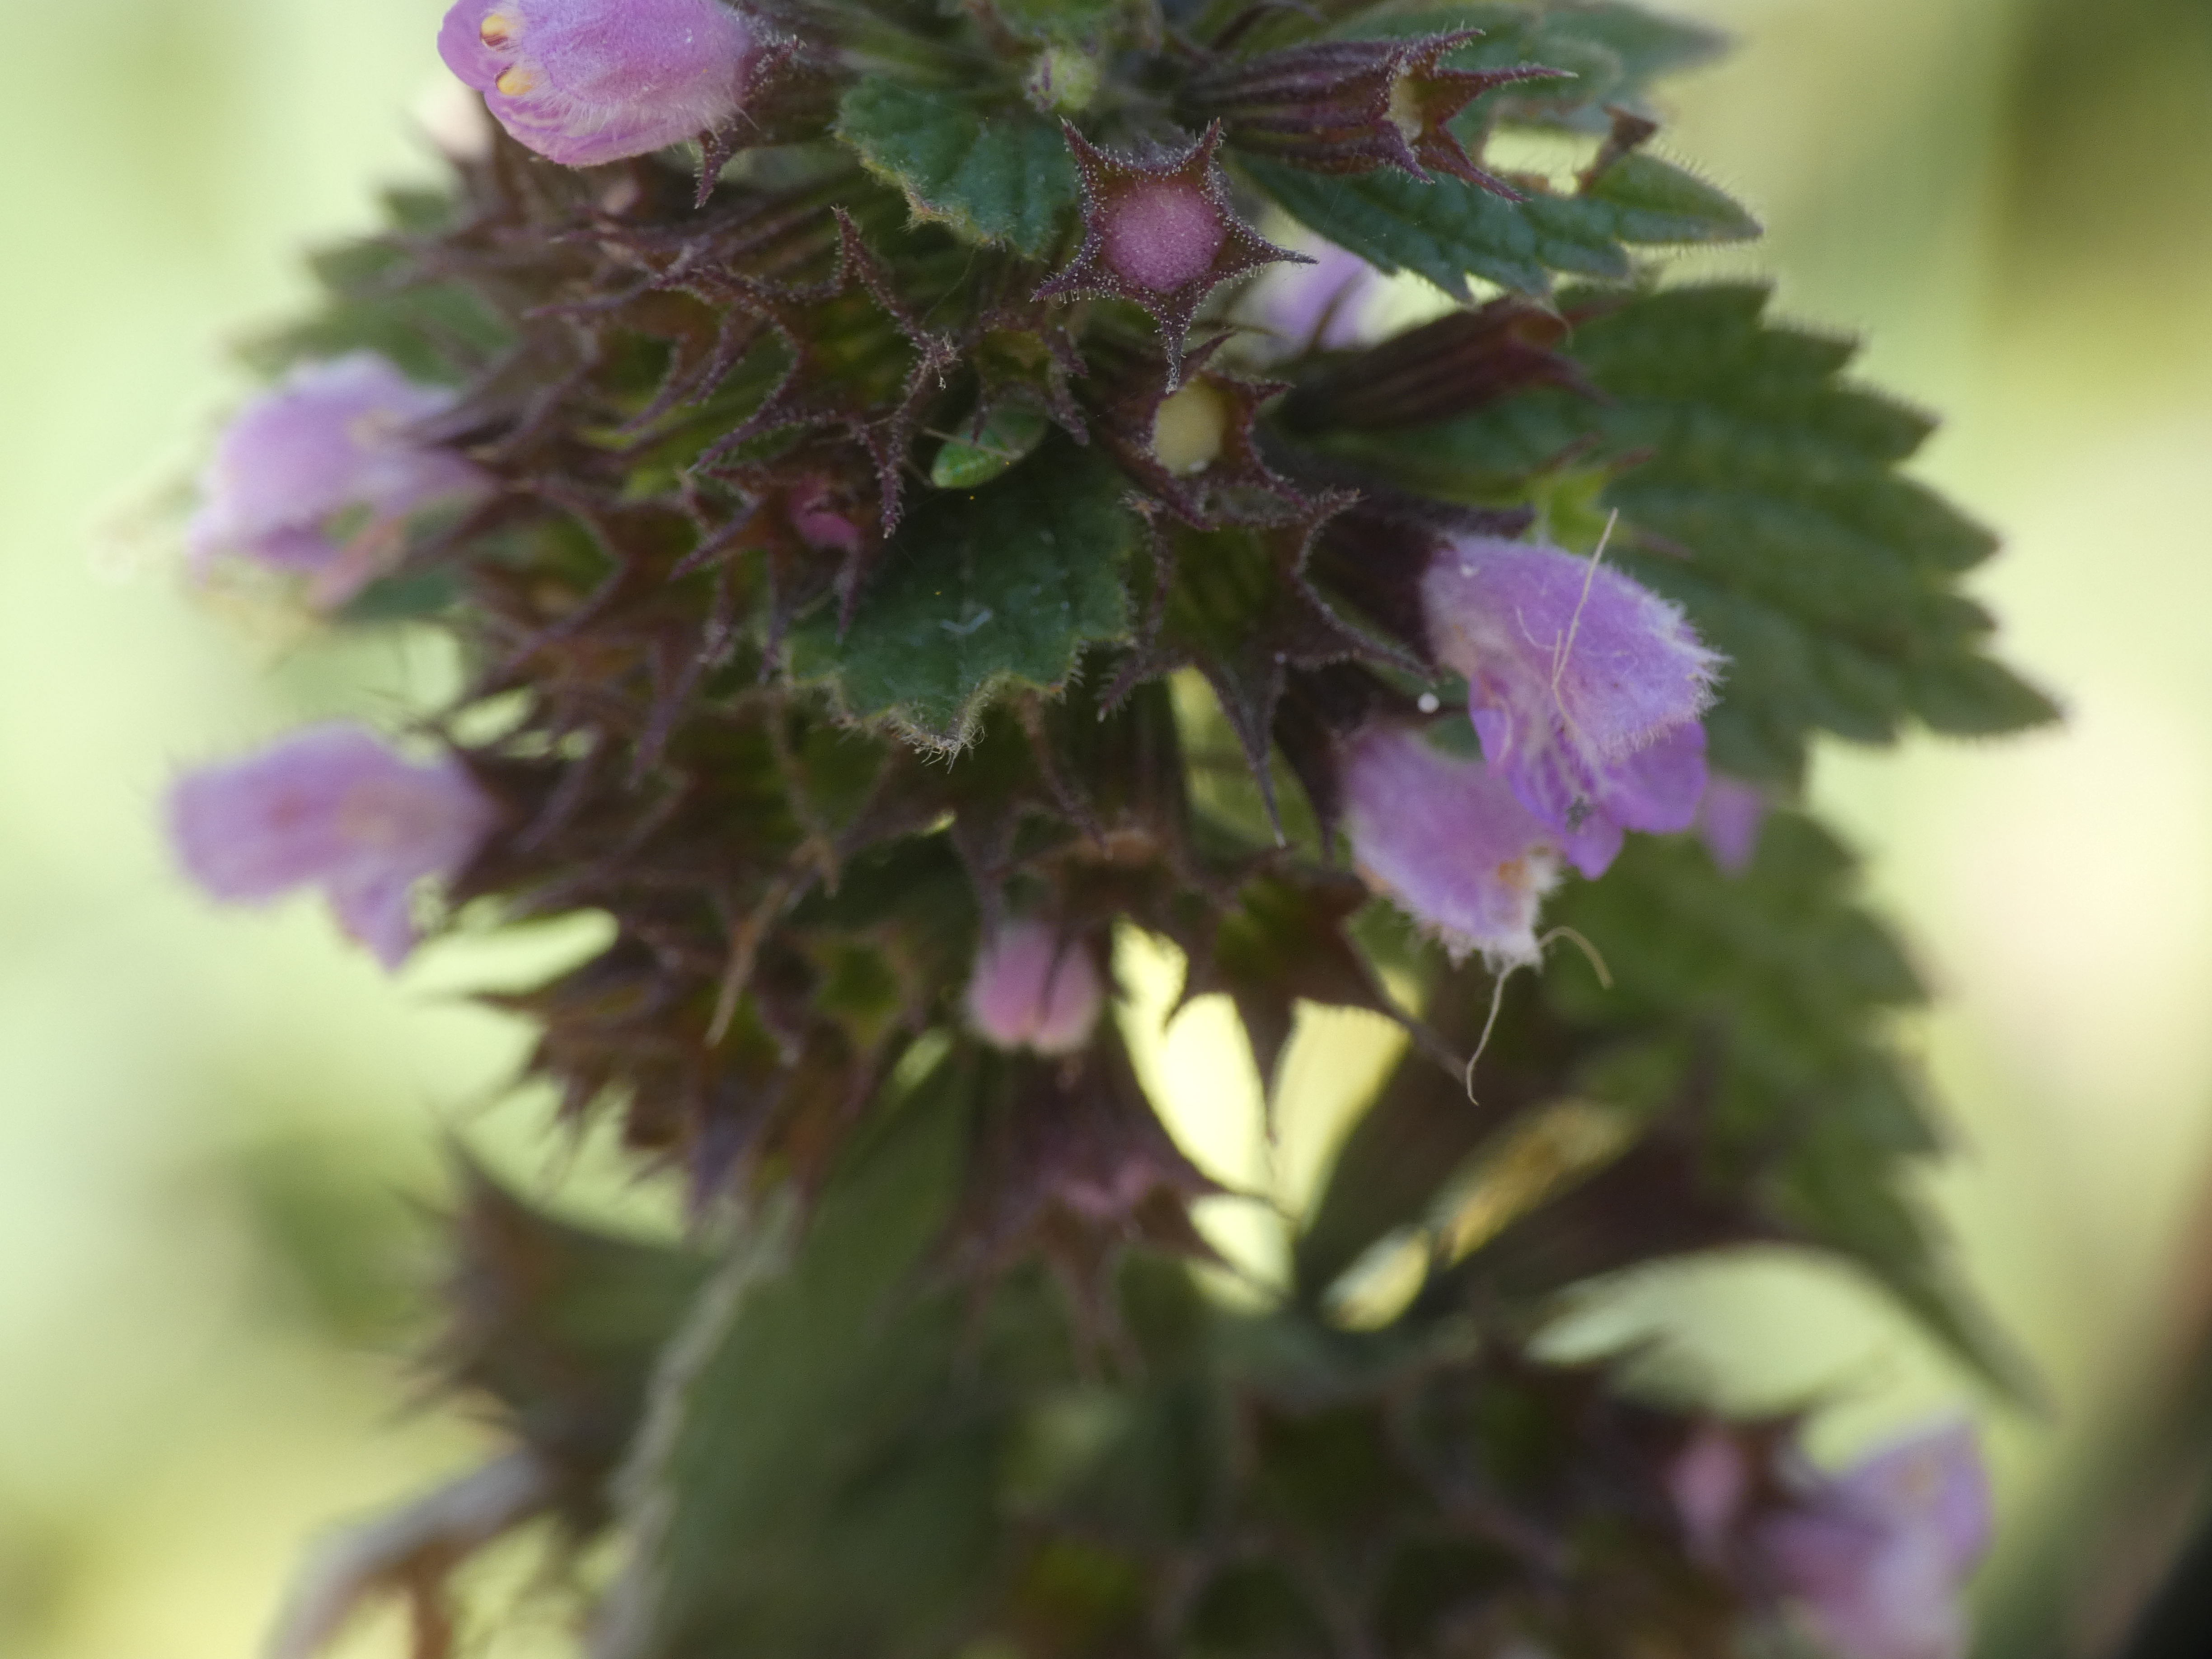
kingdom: Plantae
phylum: Tracheophyta
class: Magnoliopsida
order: Lamiales
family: Lamiaceae
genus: Ballota
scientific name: Ballota nigra
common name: Rød tandbæger
